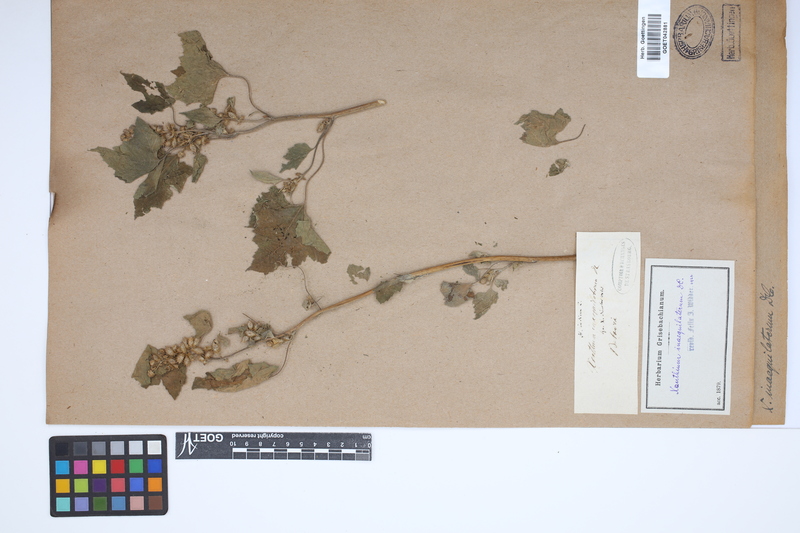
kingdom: Plantae
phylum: Tracheophyta
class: Magnoliopsida
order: Asterales
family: Asteraceae
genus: Xanthium
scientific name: Xanthium strumarium
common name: Rough cocklebur
